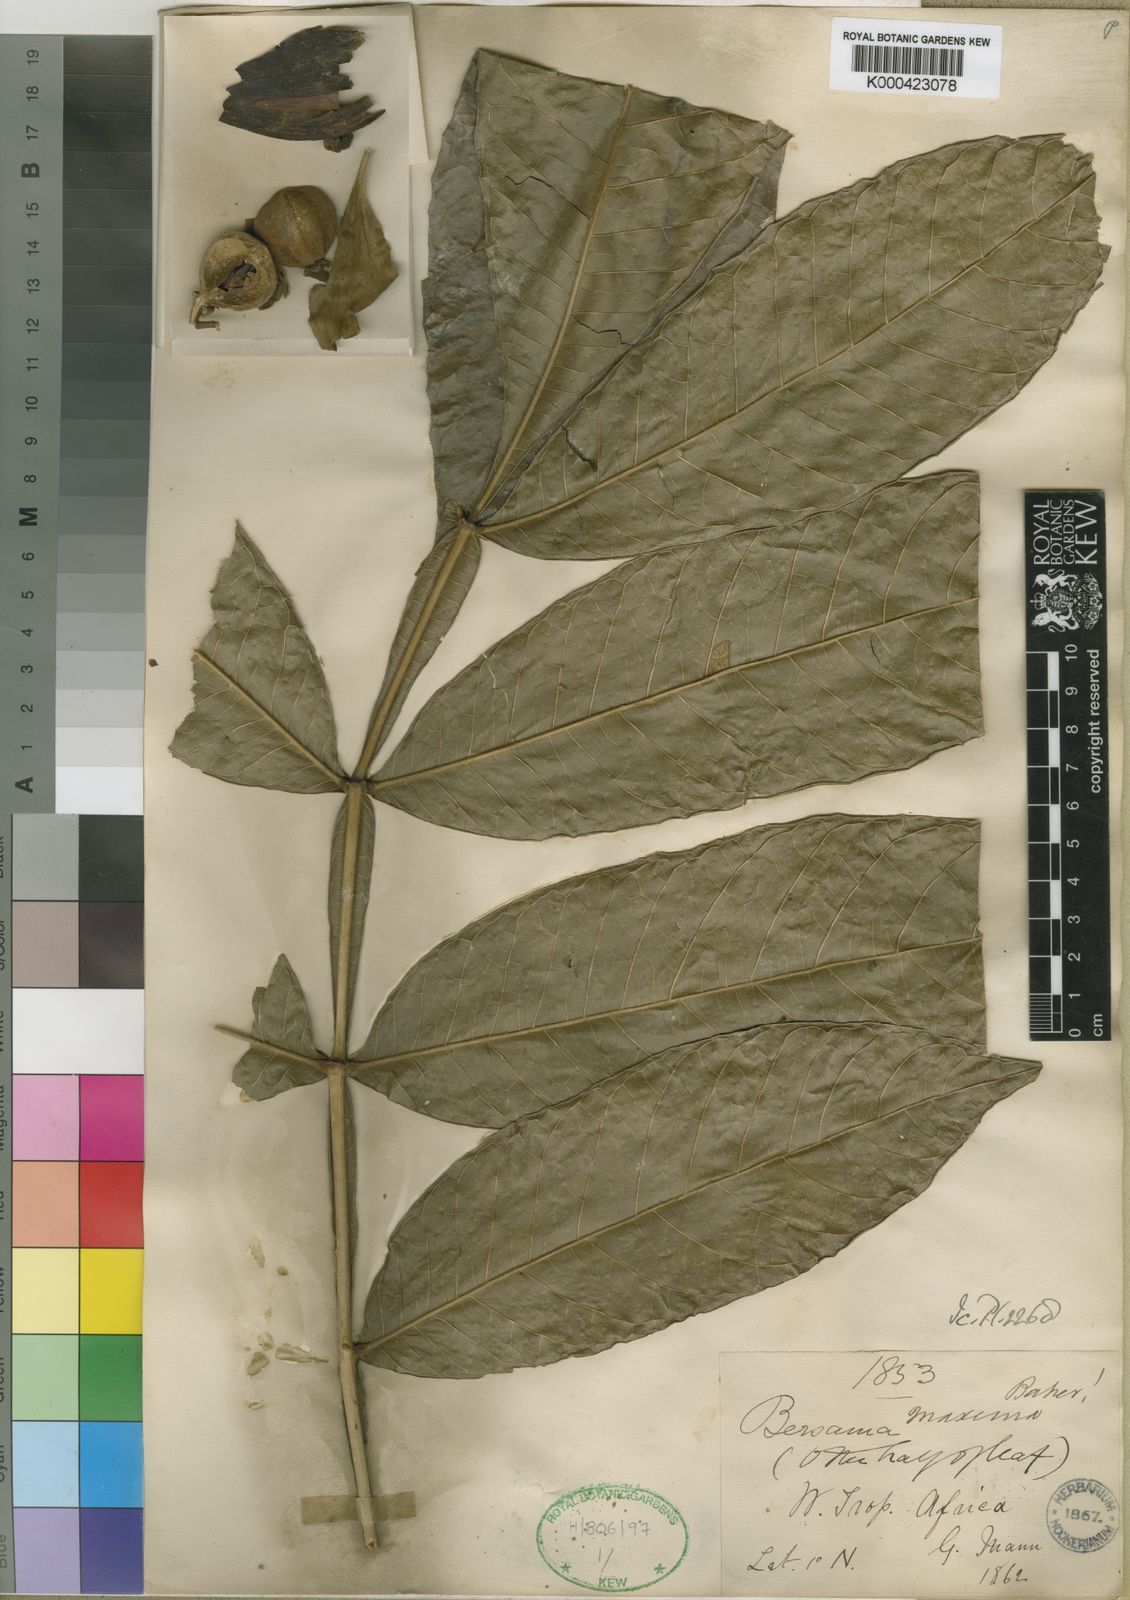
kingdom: Plantae
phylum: Tracheophyta
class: Magnoliopsida
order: Geraniales
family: Melianthaceae
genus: Bersama
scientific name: Bersama maxima
